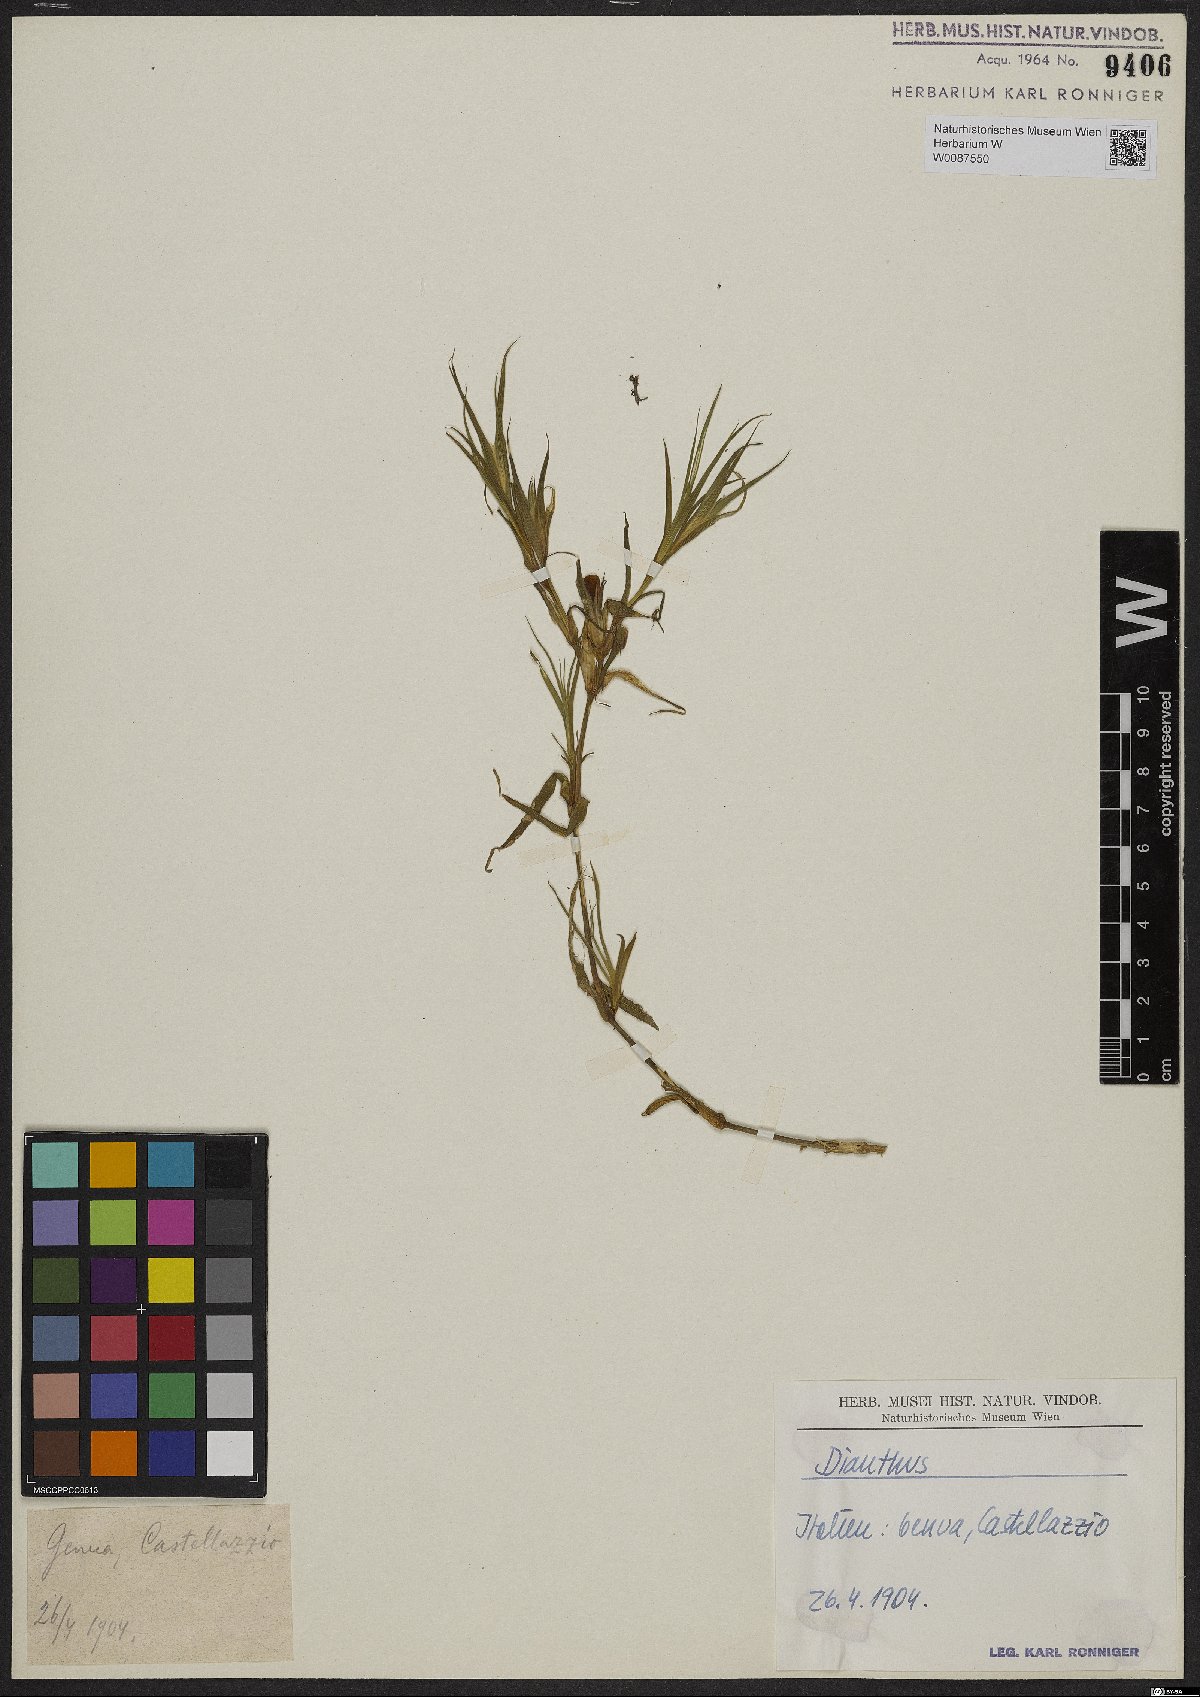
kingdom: Plantae
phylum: Tracheophyta
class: Magnoliopsida
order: Caryophyllales
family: Caryophyllaceae
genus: Dianthus
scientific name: Dianthus
